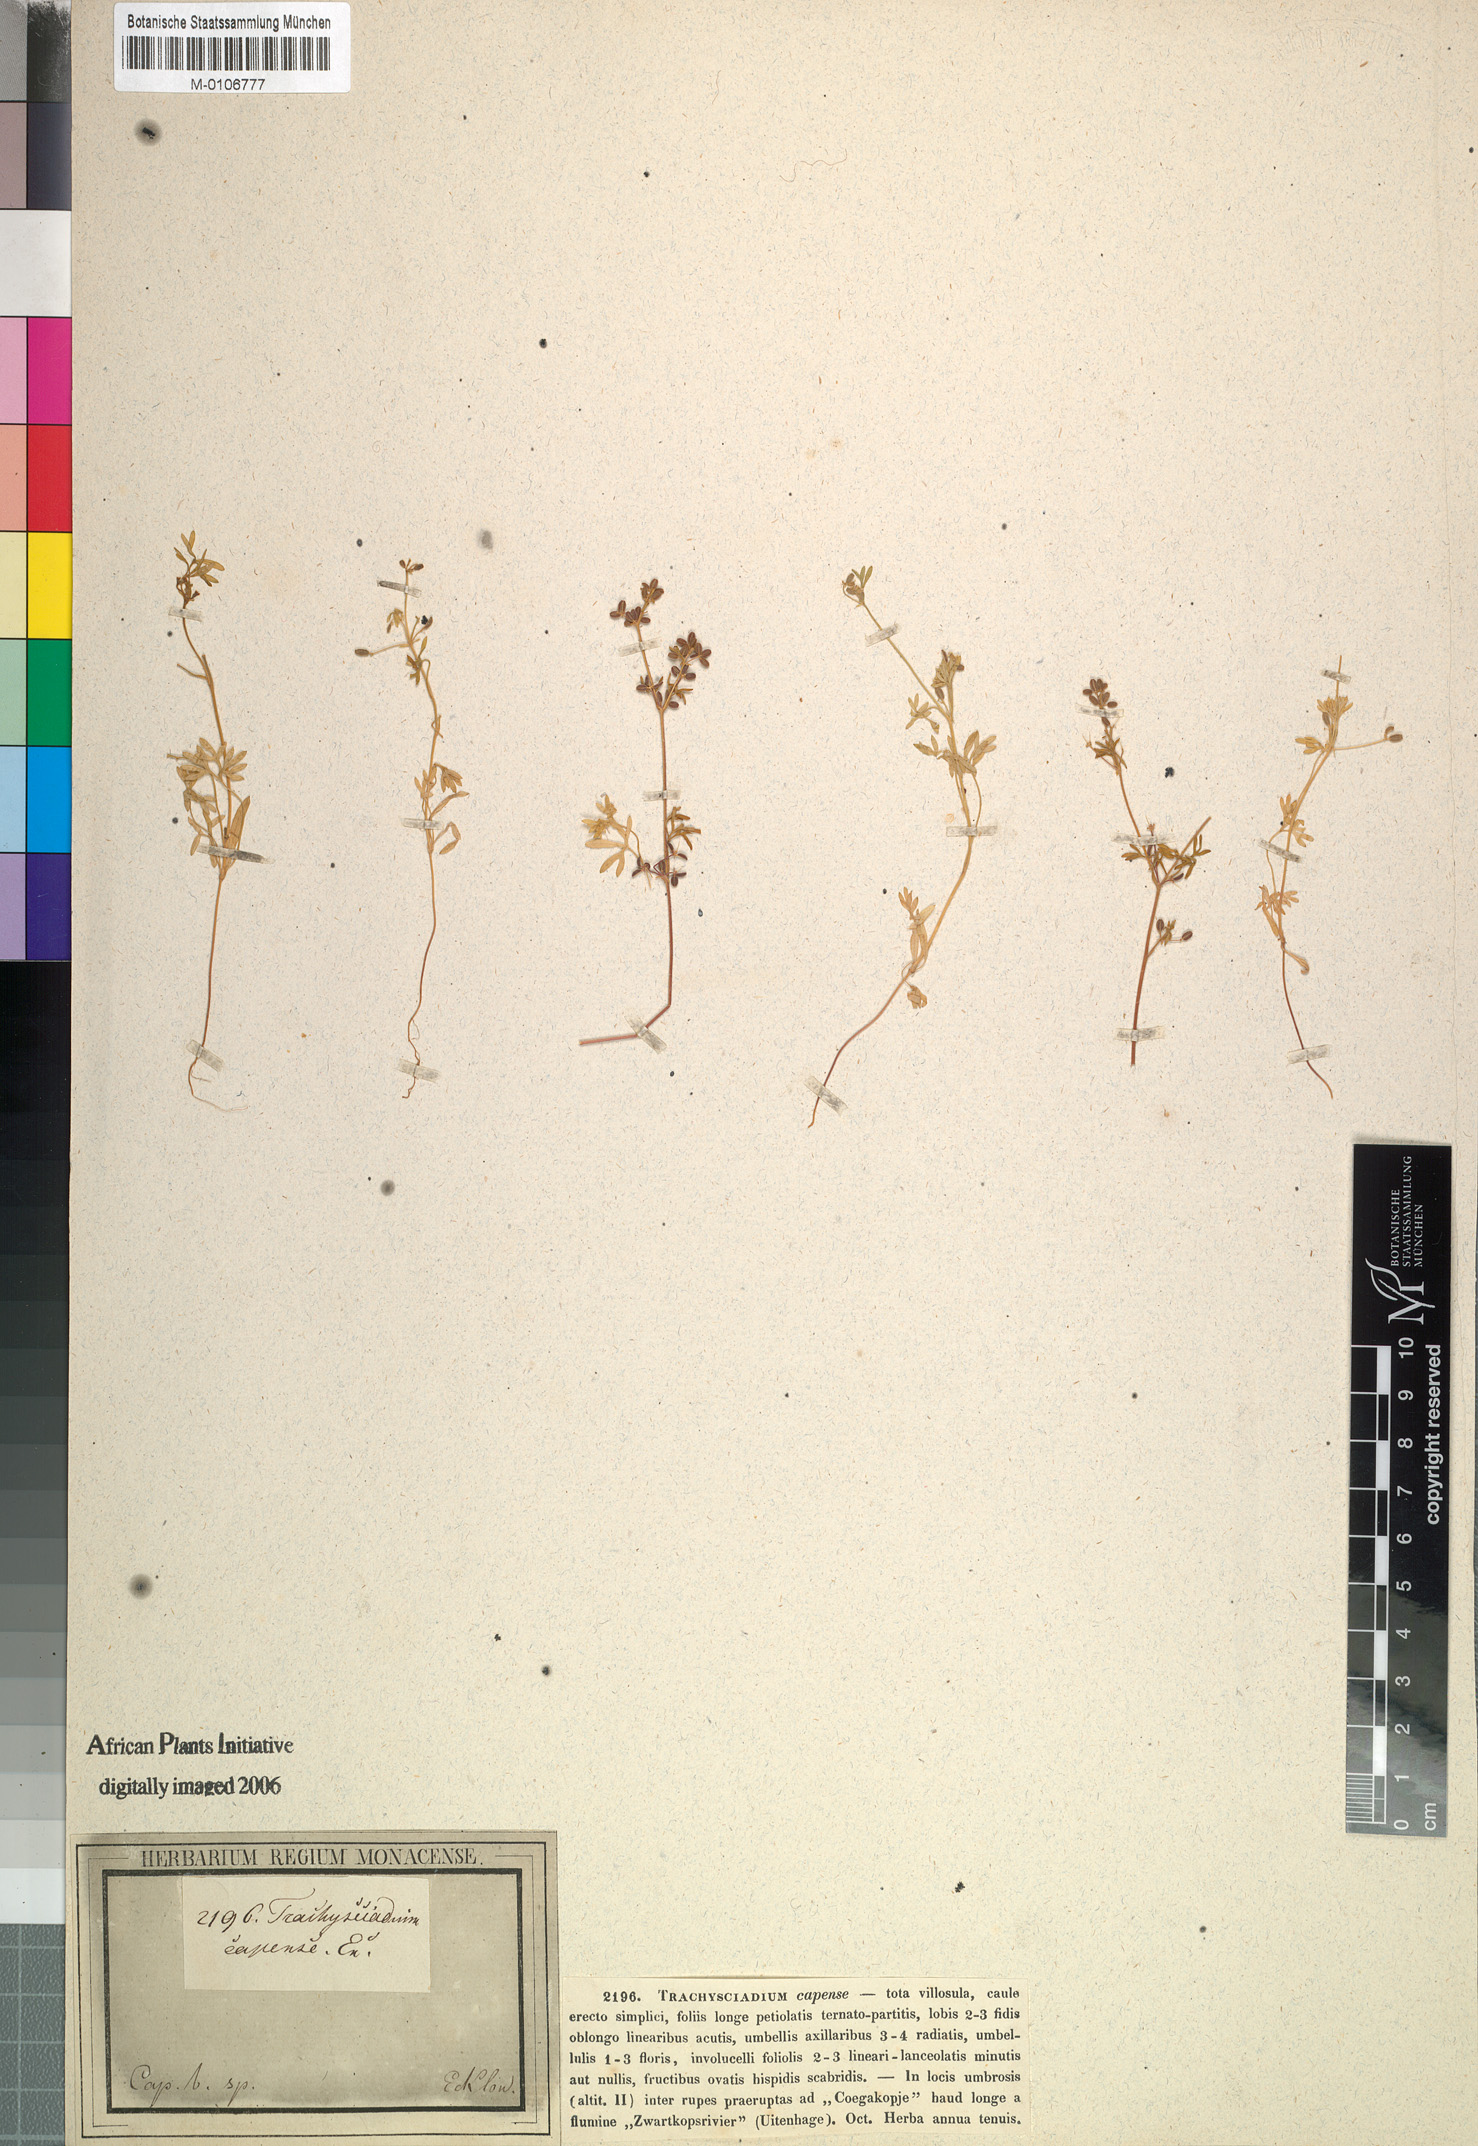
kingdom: Plantae
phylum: Tracheophyta
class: Magnoliopsida
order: Apiales
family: Apiaceae
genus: Apium
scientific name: Apium
